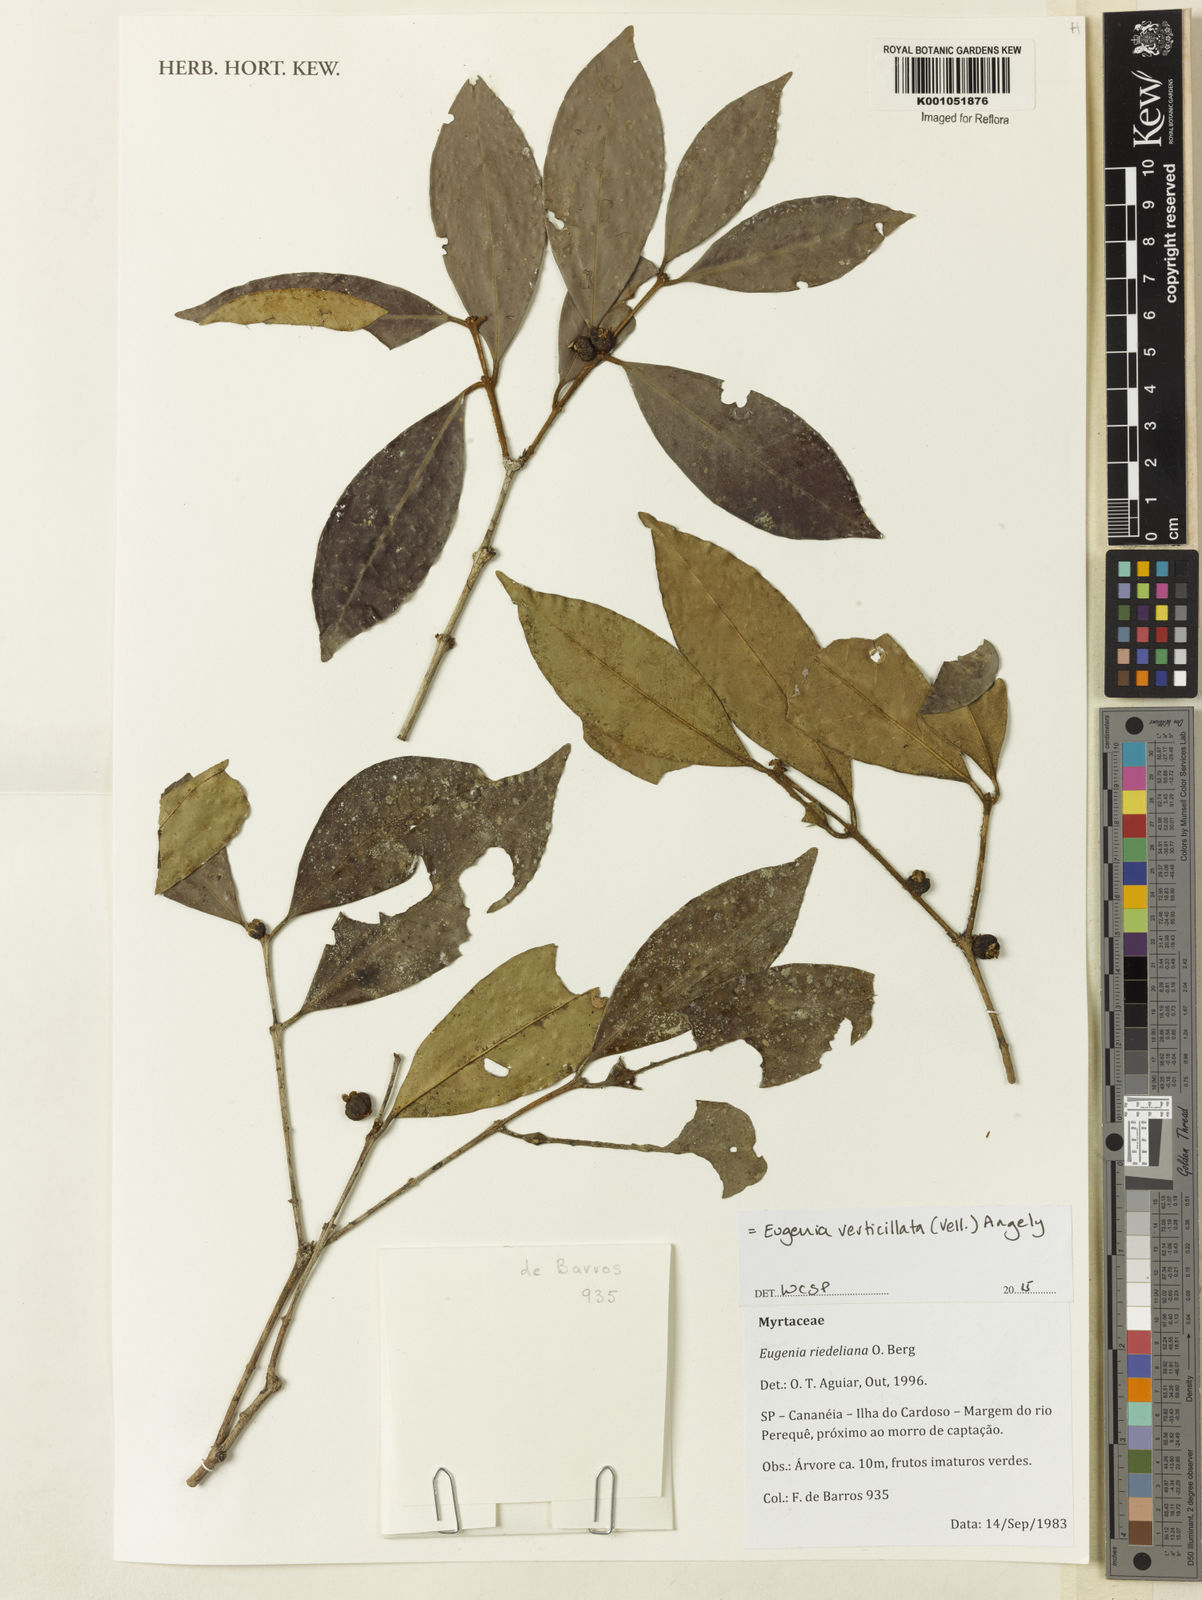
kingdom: Plantae
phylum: Tracheophyta
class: Magnoliopsida
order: Myrtales
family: Myrtaceae
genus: Eugenia
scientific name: Eugenia verticillata
